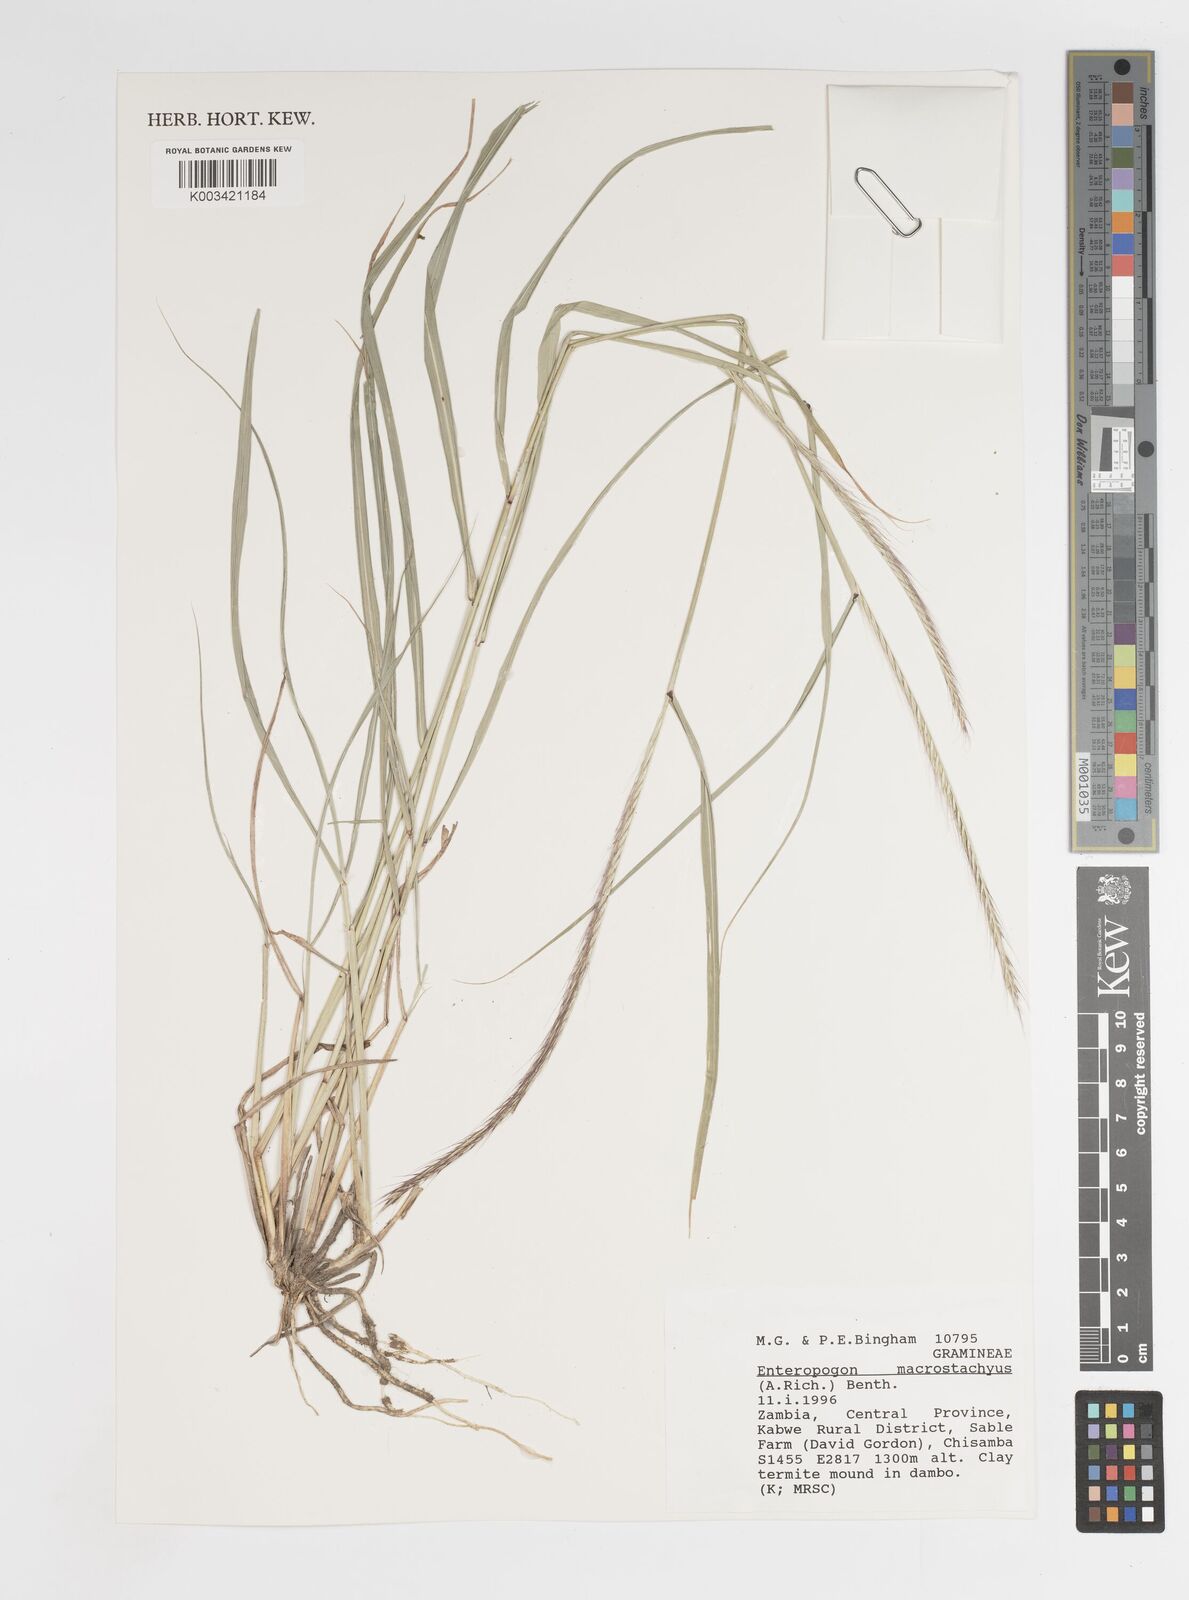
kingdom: Plantae
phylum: Tracheophyta
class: Liliopsida
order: Poales
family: Poaceae
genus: Enteropogon
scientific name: Enteropogon macrostachyus
